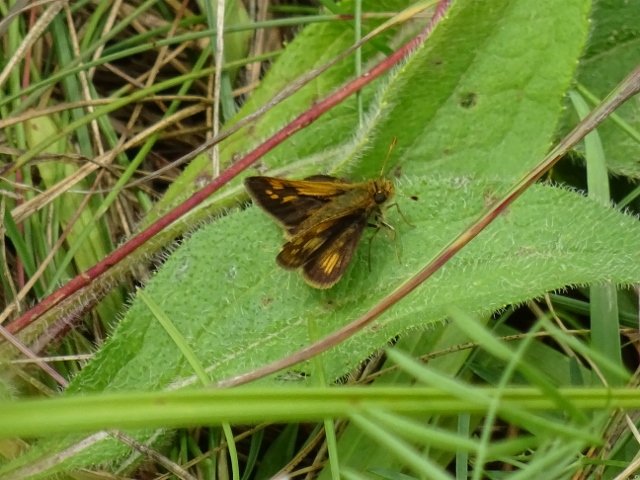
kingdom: Animalia
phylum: Arthropoda
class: Insecta
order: Lepidoptera
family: Hesperiidae
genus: Polites
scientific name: Polites coras
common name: Peck's Skipper
